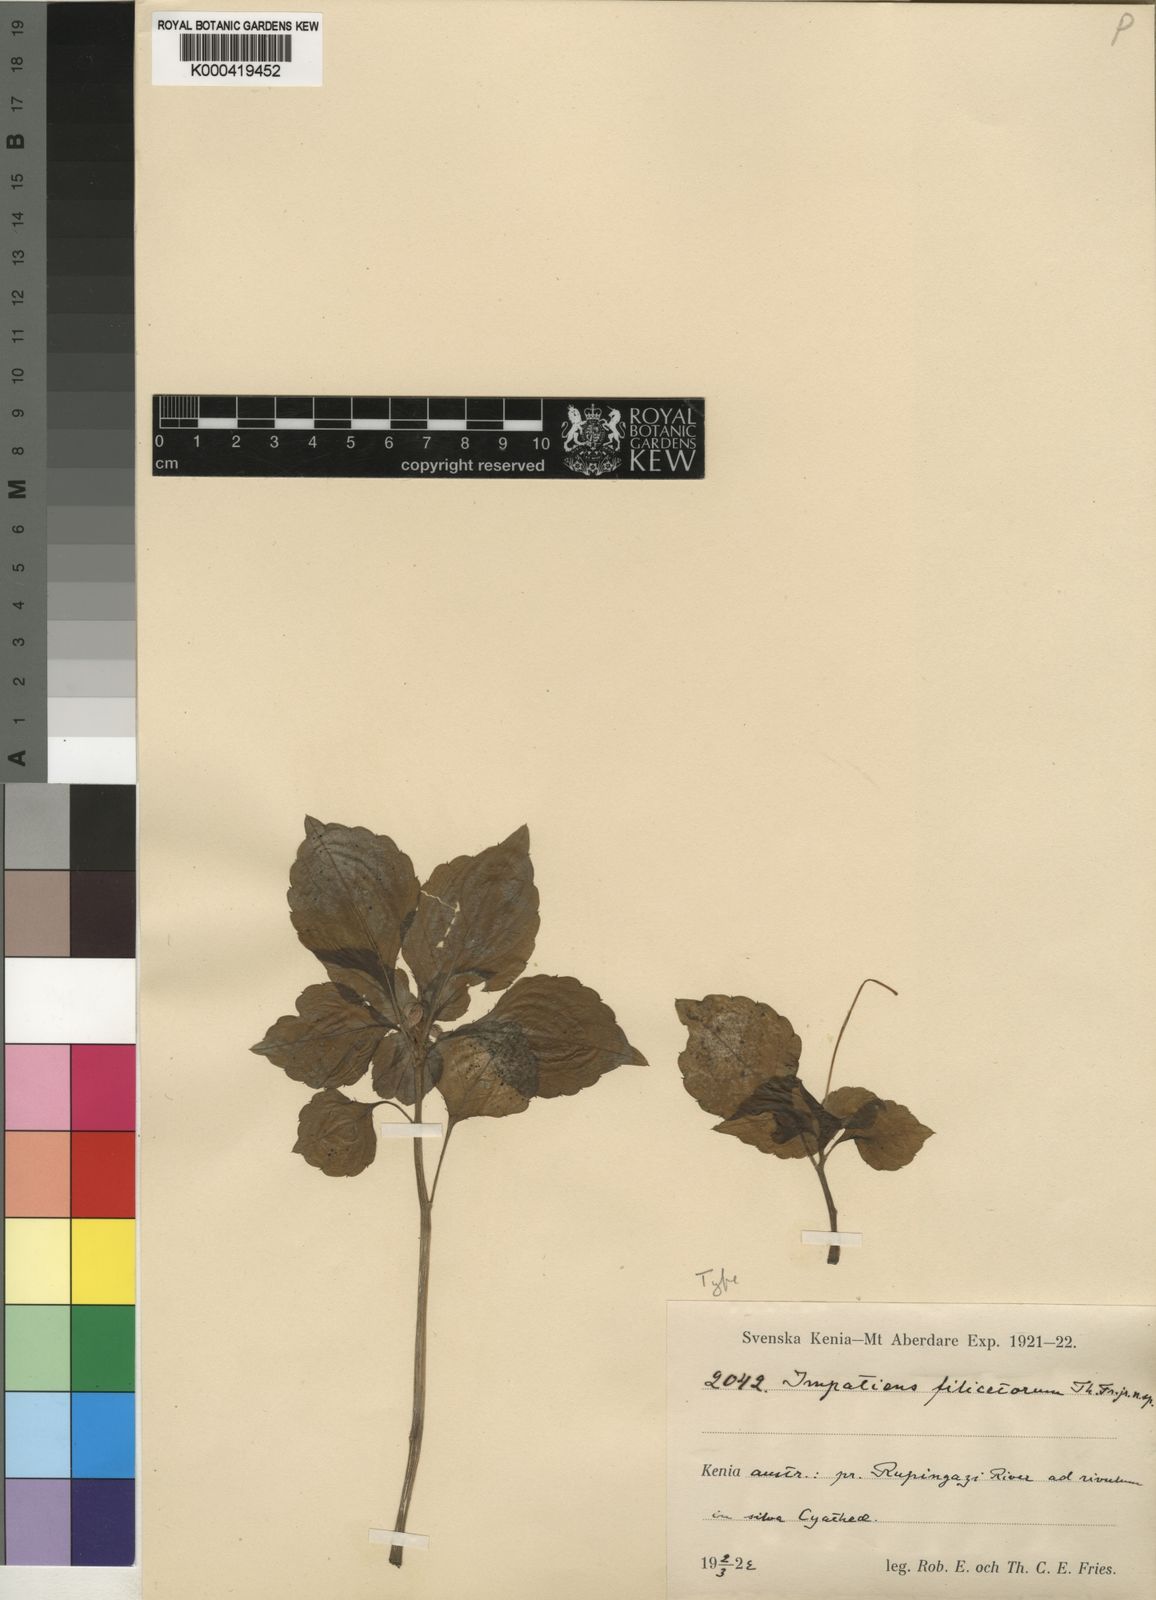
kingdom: Plantae
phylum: Tracheophyta
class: Magnoliopsida
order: Ericales
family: Balsaminaceae
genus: Impatiens
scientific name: Impatiens pseudoviola
